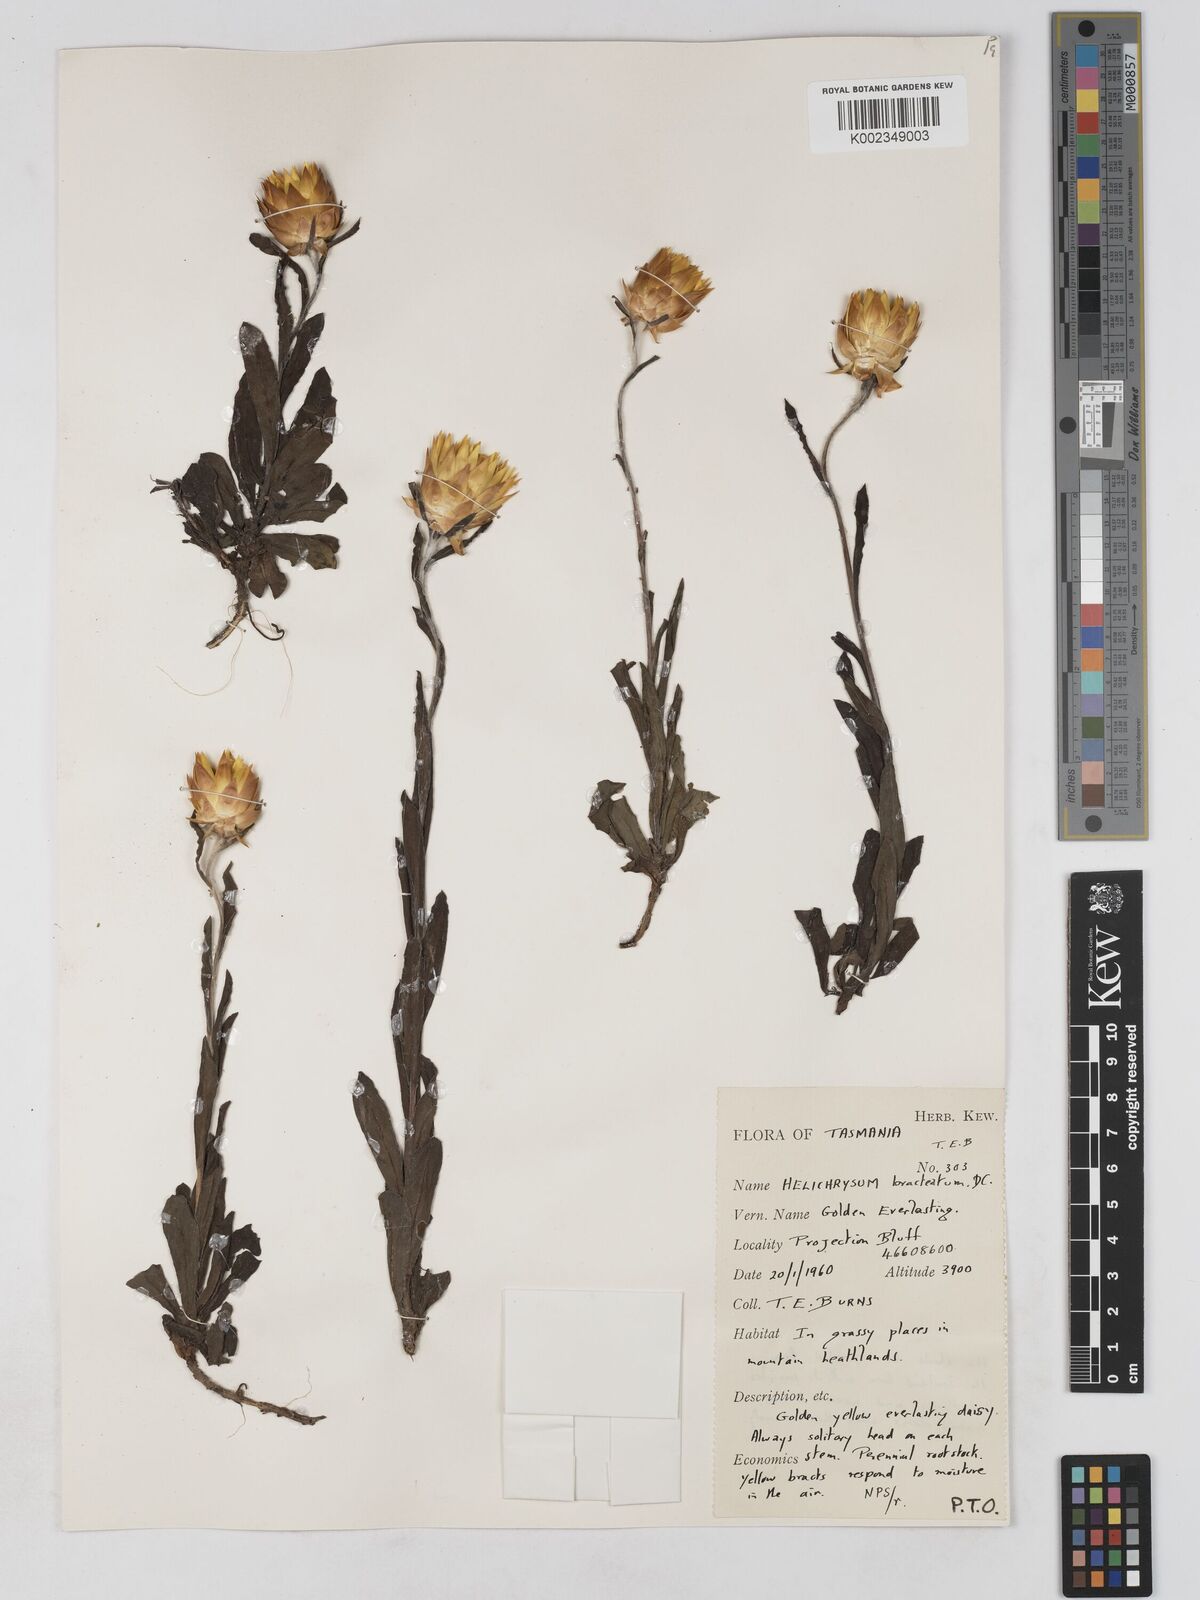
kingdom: Plantae
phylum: Tracheophyta
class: Magnoliopsida
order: Asterales
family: Asteraceae
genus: Xerochrysum
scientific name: Xerochrysum bracteatum
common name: Bracted strawflower
